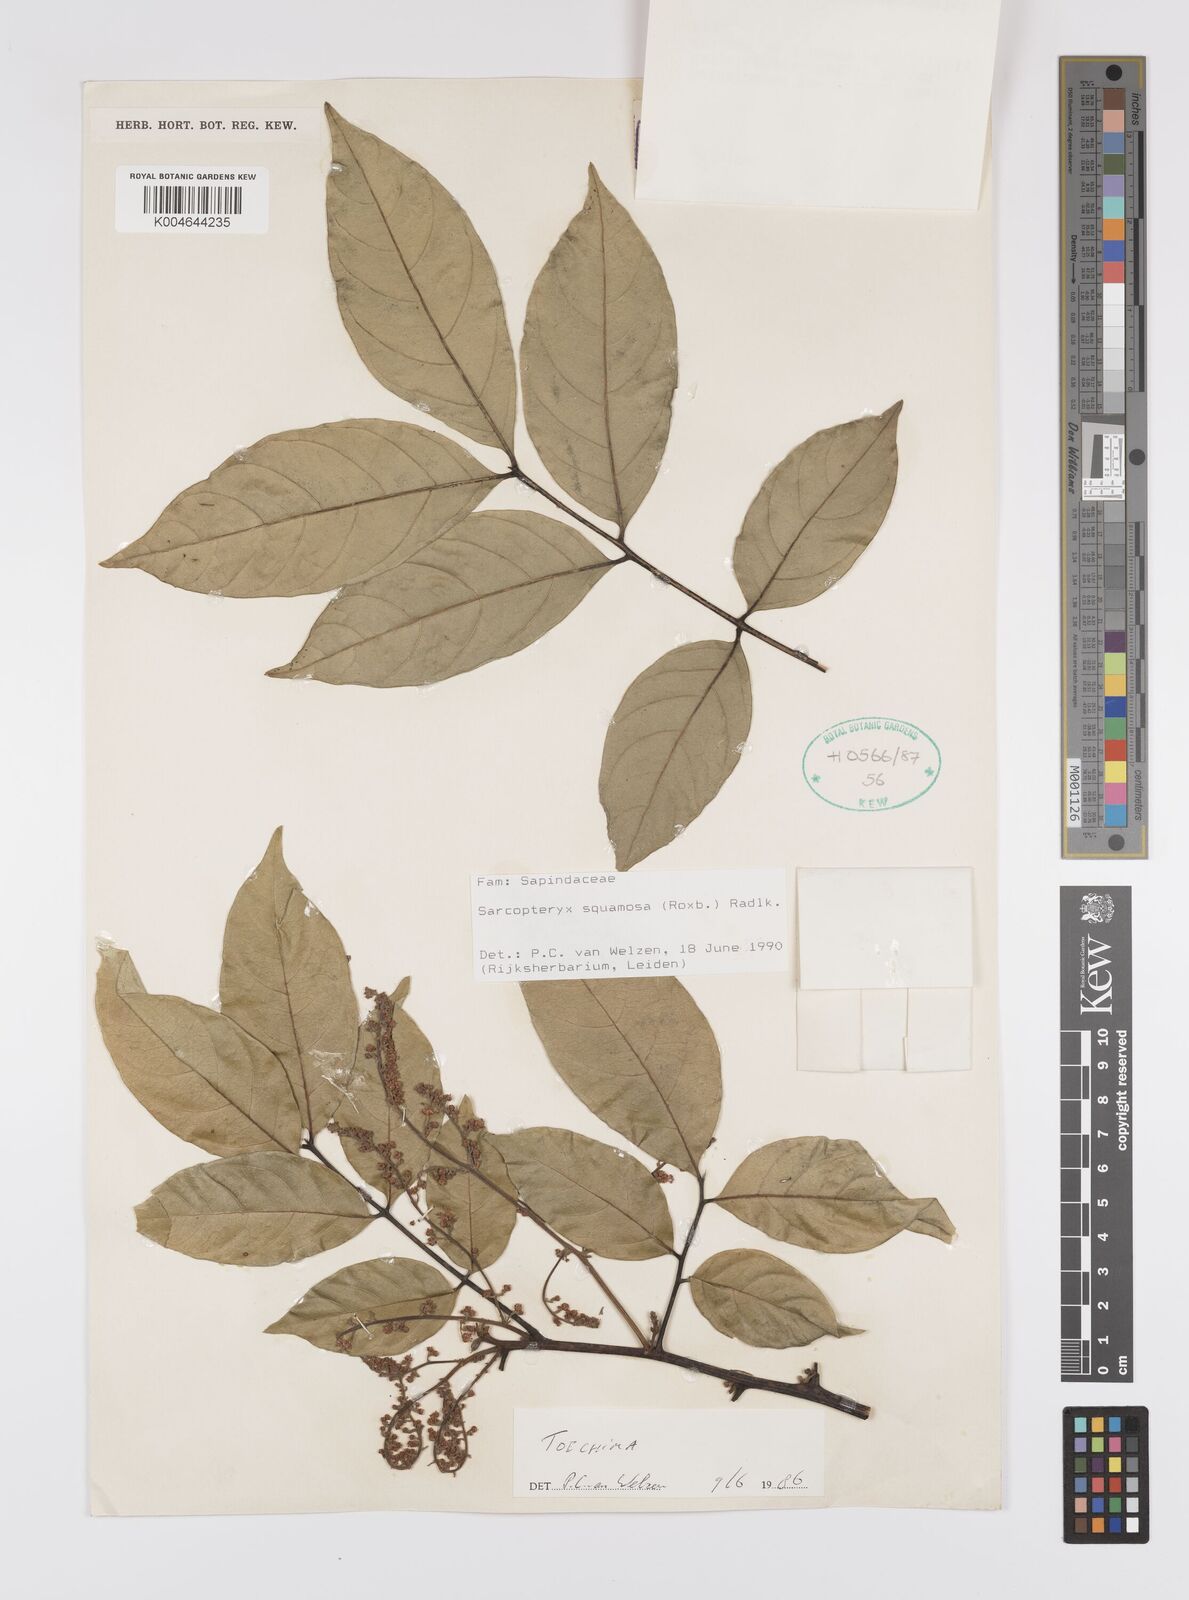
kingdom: Plantae
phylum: Tracheophyta
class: Magnoliopsida
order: Sapindales
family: Sapindaceae
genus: Sarcopteryx
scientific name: Sarcopteryx squamosa
